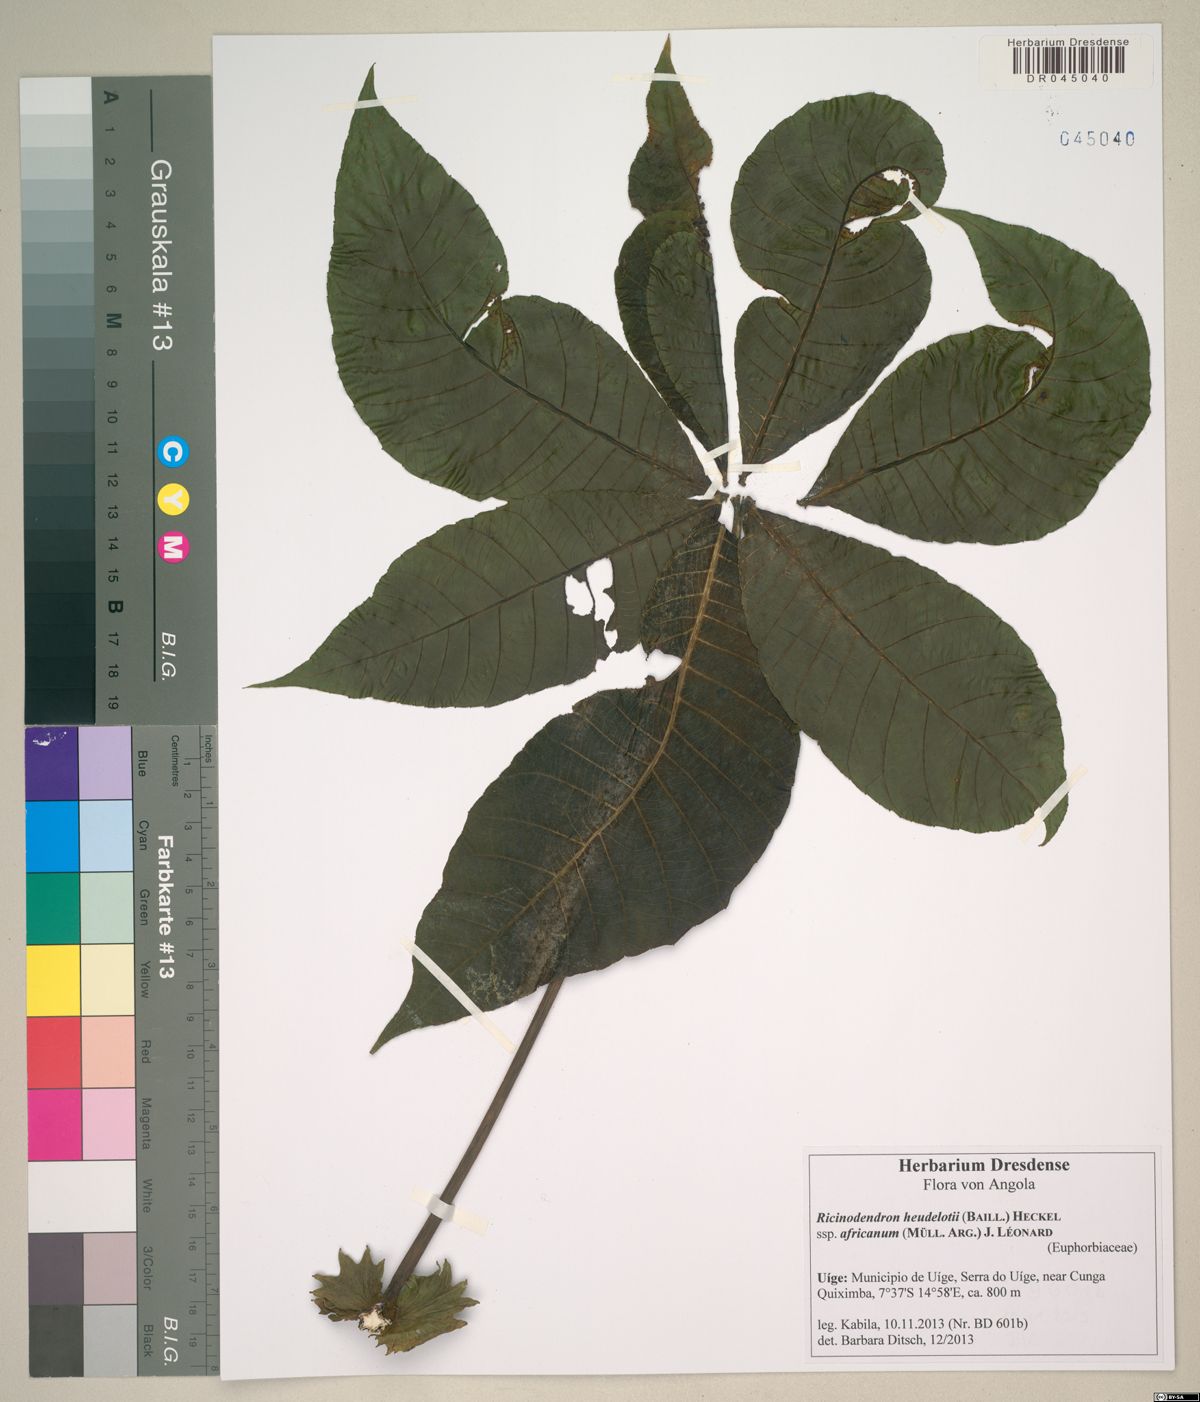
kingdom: Plantae
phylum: Tracheophyta
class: Magnoliopsida
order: Malpighiales
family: Euphorbiaceae
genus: Ricinodendron
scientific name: Ricinodendron heudelotii
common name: African nut-tree
